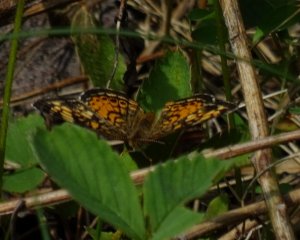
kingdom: Animalia
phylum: Arthropoda
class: Insecta
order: Lepidoptera
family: Nymphalidae
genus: Phyciodes
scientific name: Phyciodes tharos
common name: Pearl Crescent
